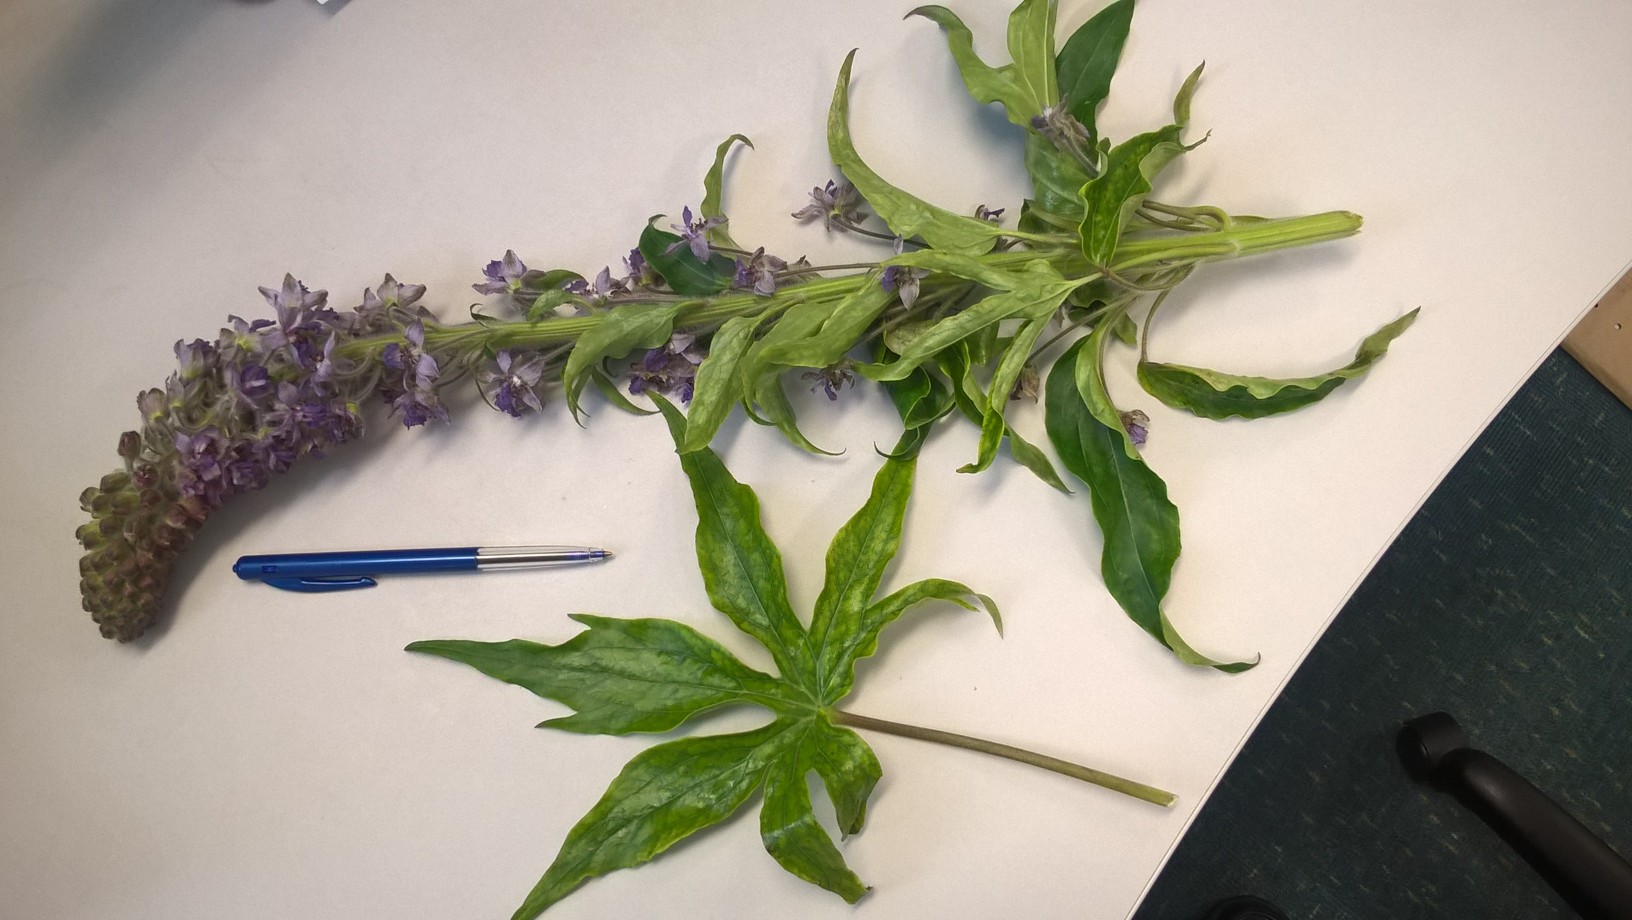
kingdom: Plantae
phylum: Tracheophyta
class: Magnoliopsida
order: Ranunculales
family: Ranunculaceae
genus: Staphisagria
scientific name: Staphisagria picta
